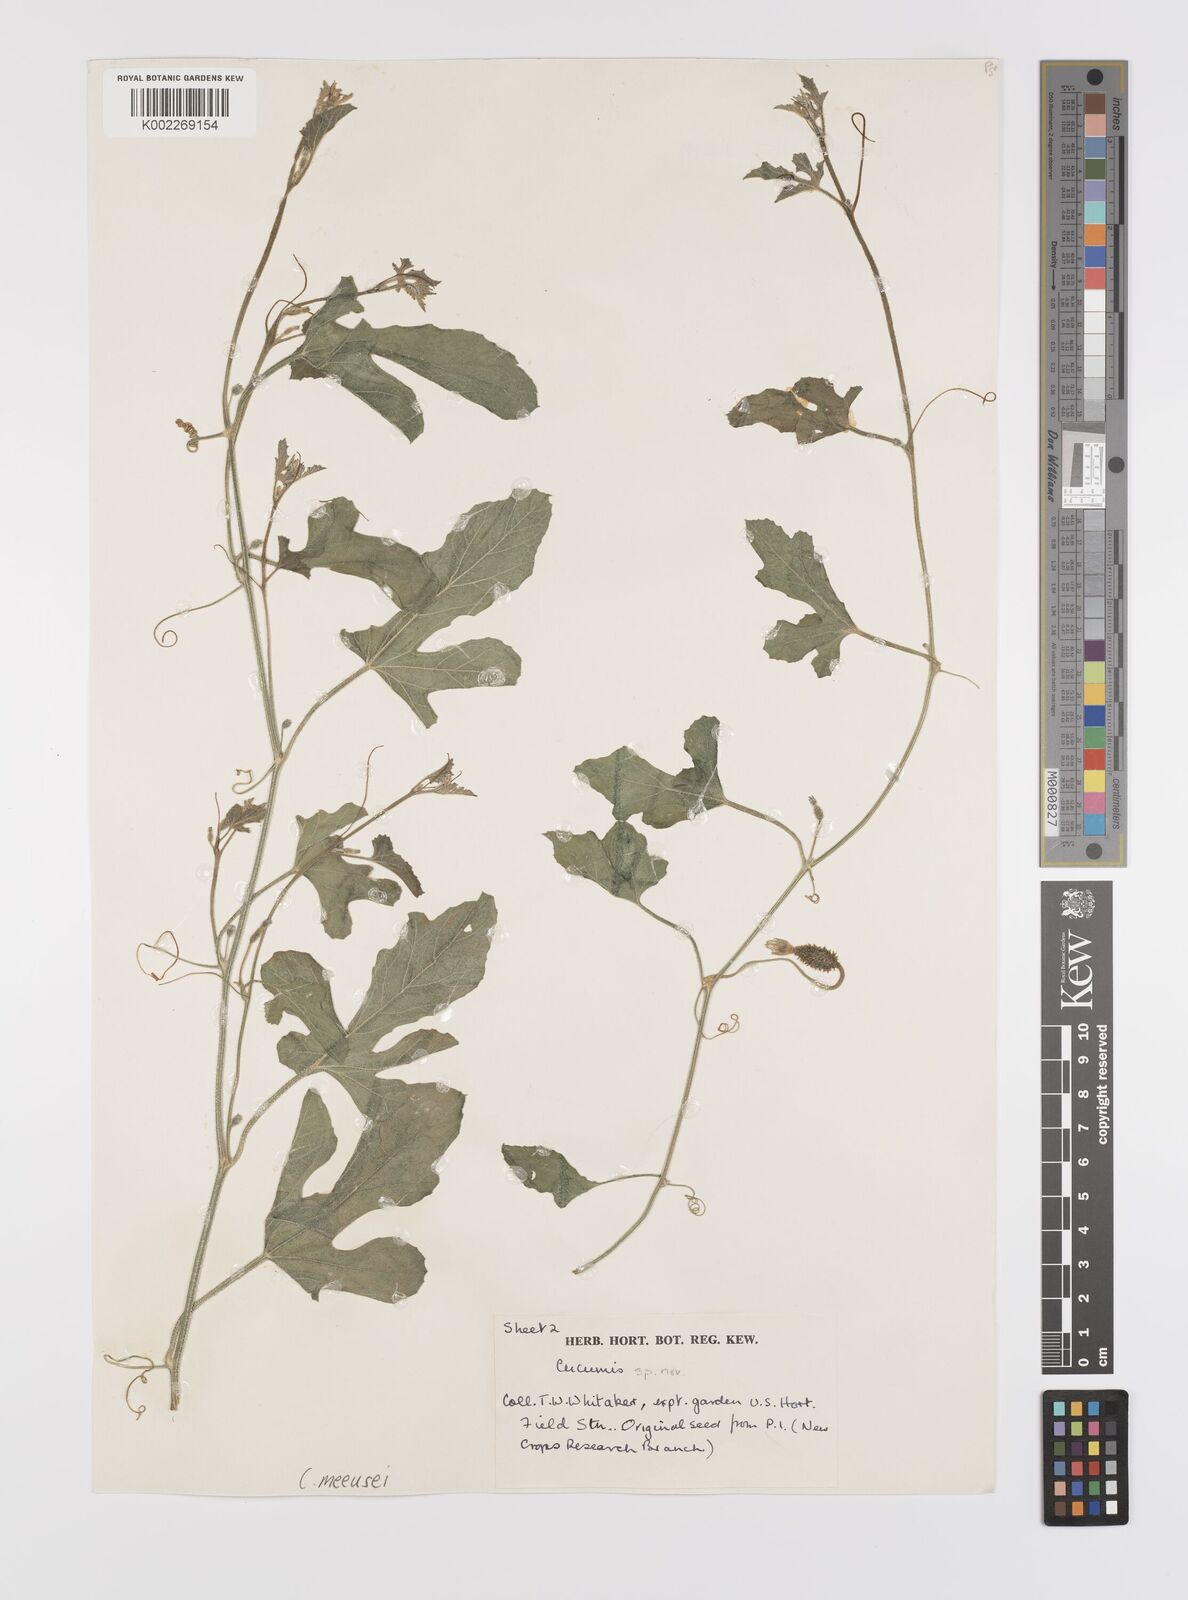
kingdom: Plantae
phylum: Tracheophyta
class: Magnoliopsida
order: Cucurbitales
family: Cucurbitaceae
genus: Cucumis
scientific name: Cucumis meeusei
